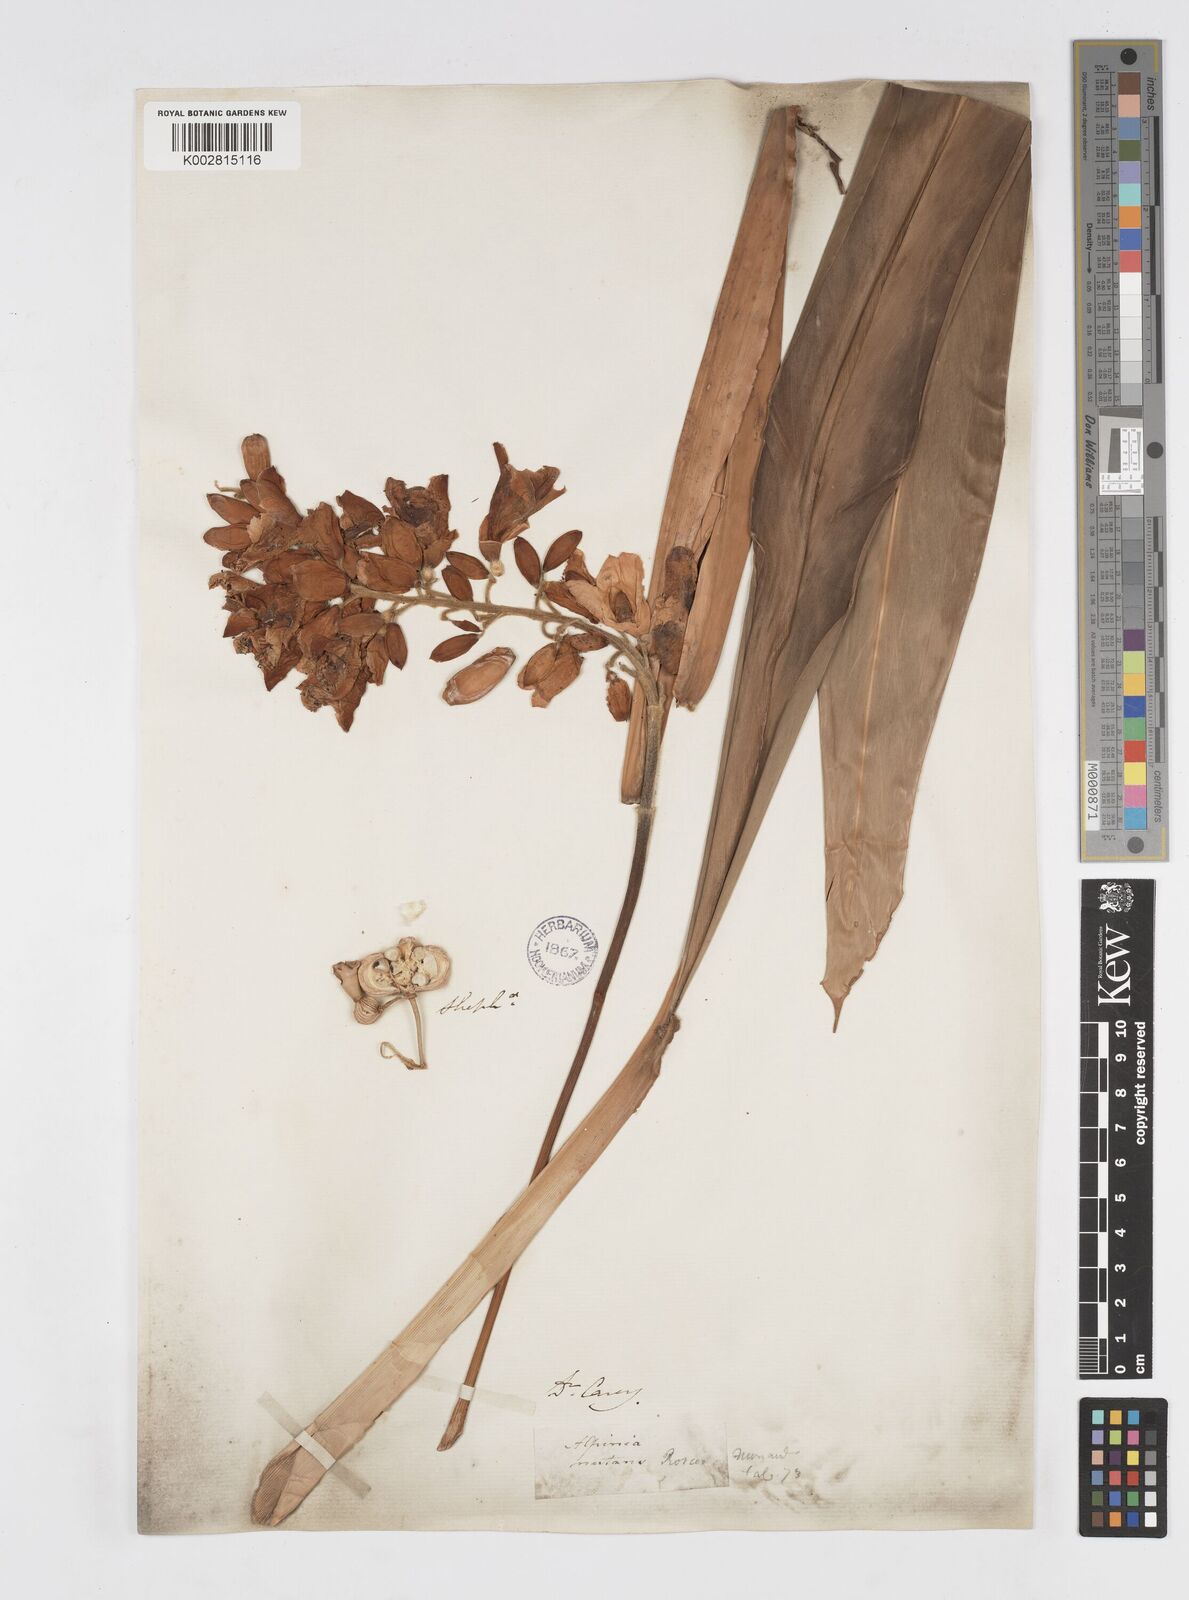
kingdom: Plantae
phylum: Tracheophyta
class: Liliopsida
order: Zingiberales
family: Zingiberaceae
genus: Alpinia
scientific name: Alpinia zerumbet
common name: Shellplant
